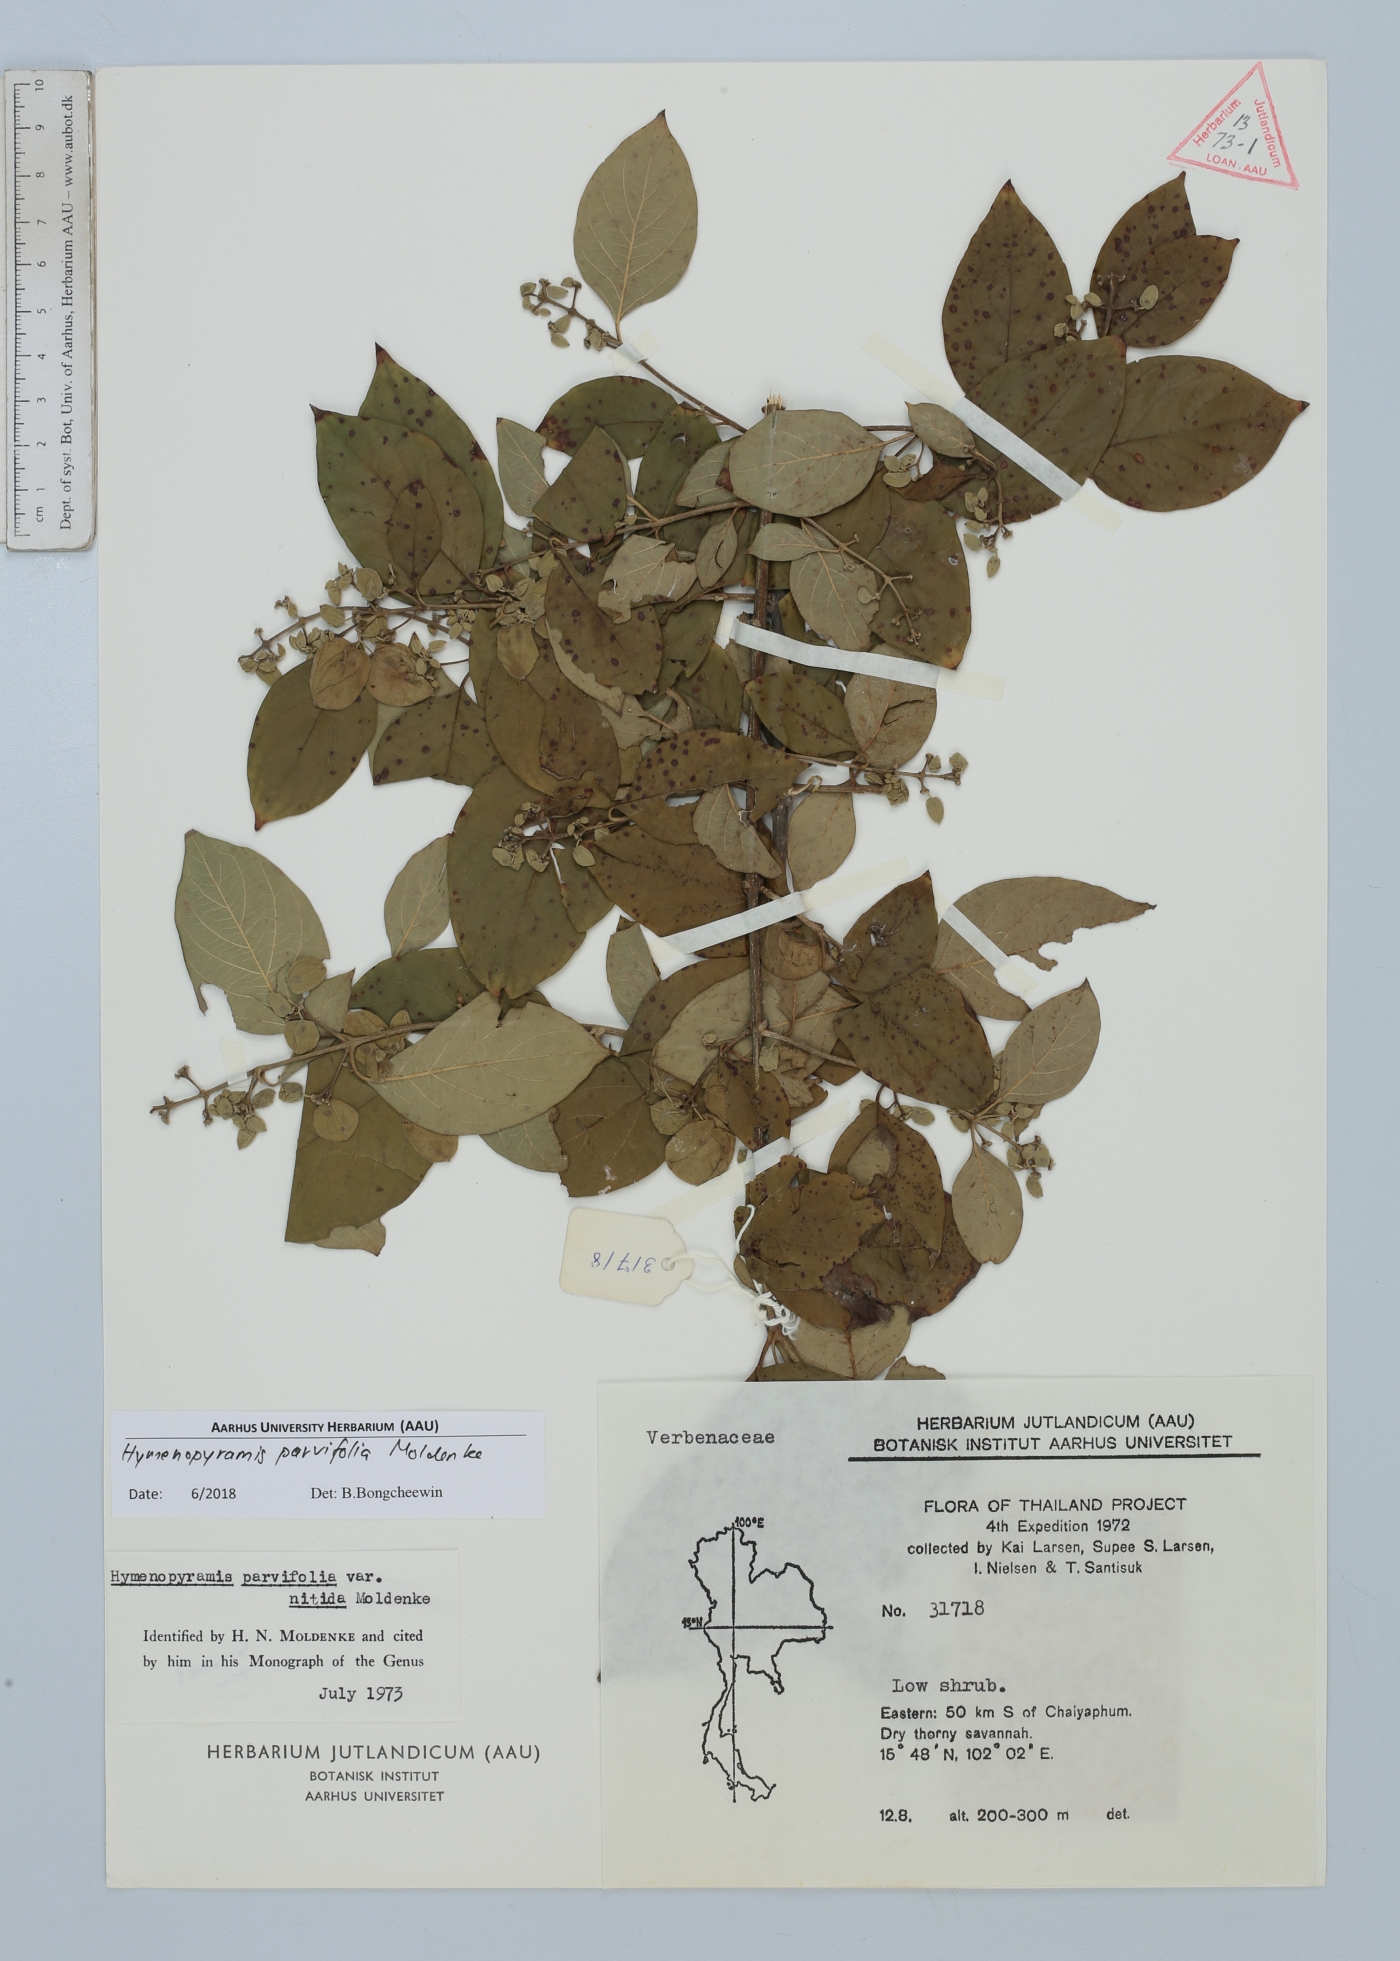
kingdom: Plantae
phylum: Tracheophyta
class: Magnoliopsida
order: Lamiales
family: Lamiaceae
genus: Hymenopyramis
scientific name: Hymenopyramis parvifolia
